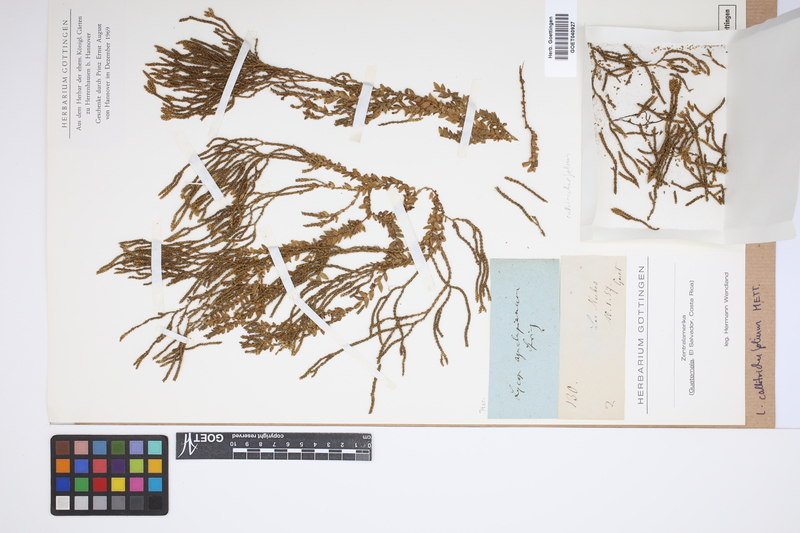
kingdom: Plantae
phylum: Tracheophyta
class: Lycopodiopsida
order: Lycopodiales
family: Lycopodiaceae
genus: Phlegmariurus
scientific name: Phlegmariurus callitrichifolius
